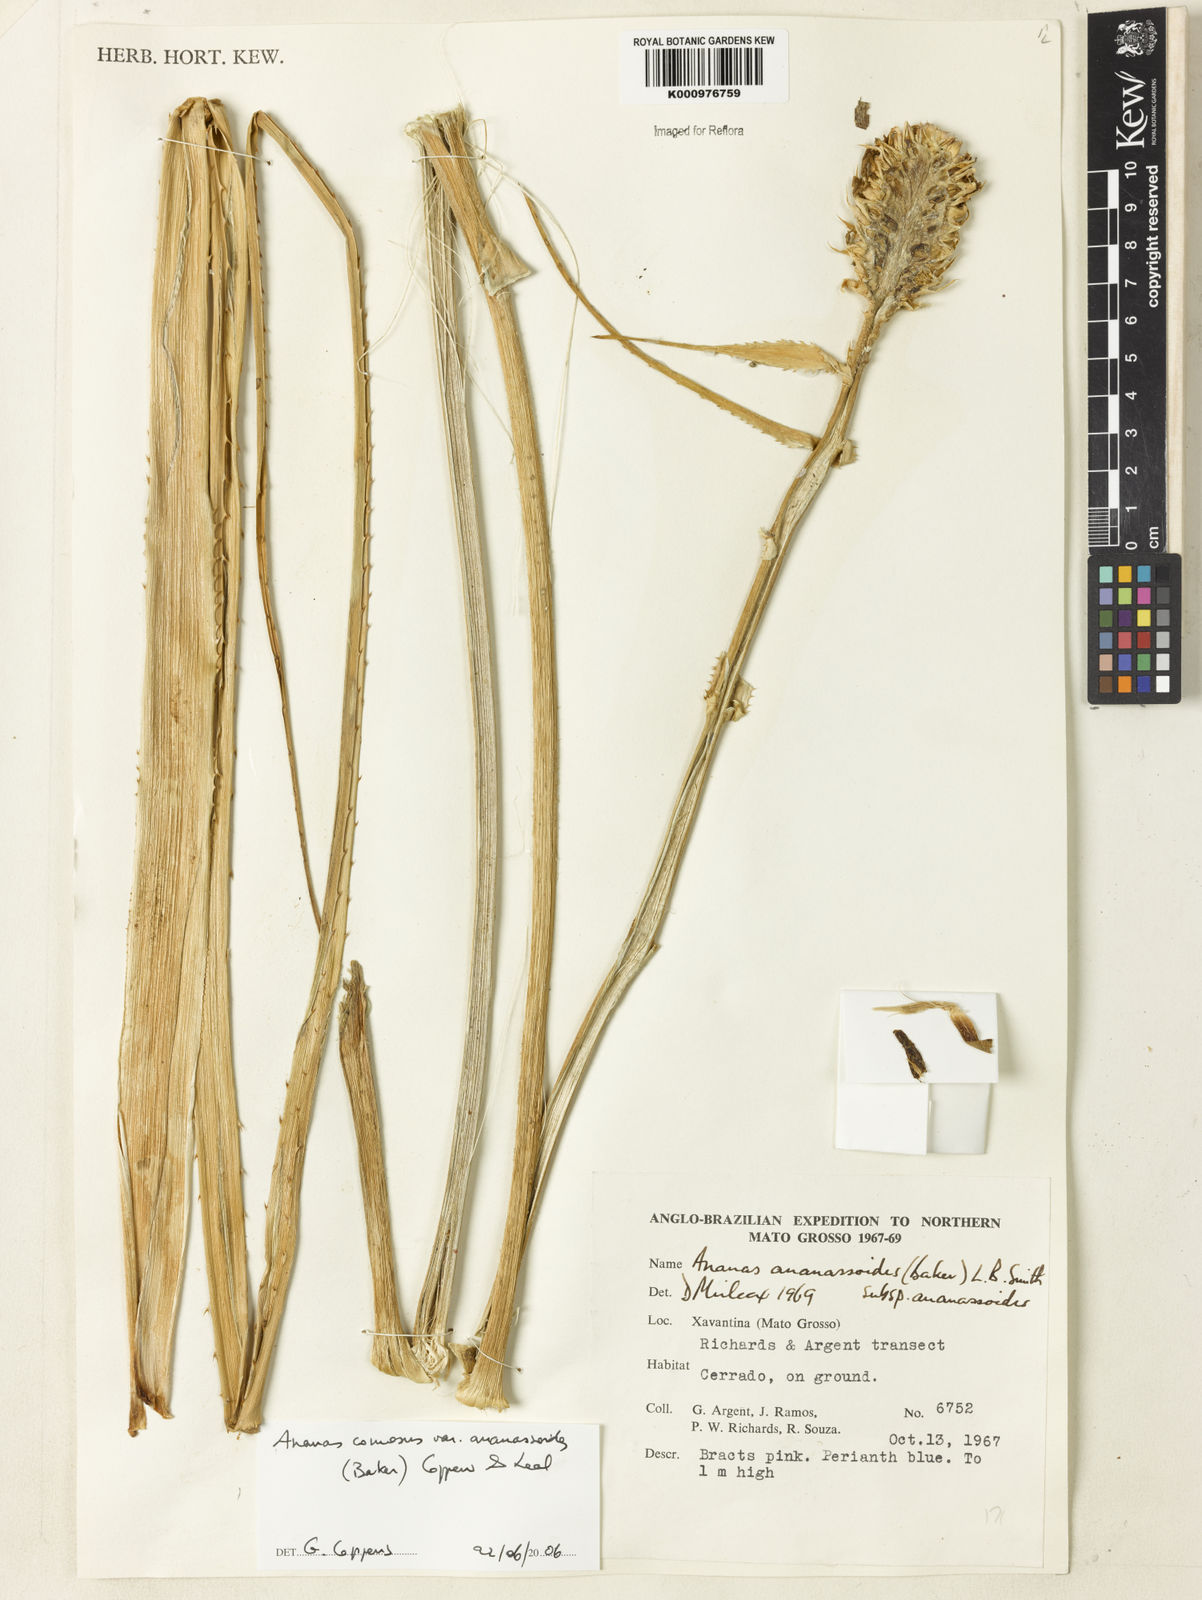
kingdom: Plantae
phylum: Tracheophyta
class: Liliopsida
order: Poales
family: Bromeliaceae
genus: Ananas
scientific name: Ananas comosus
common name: Pineapple
